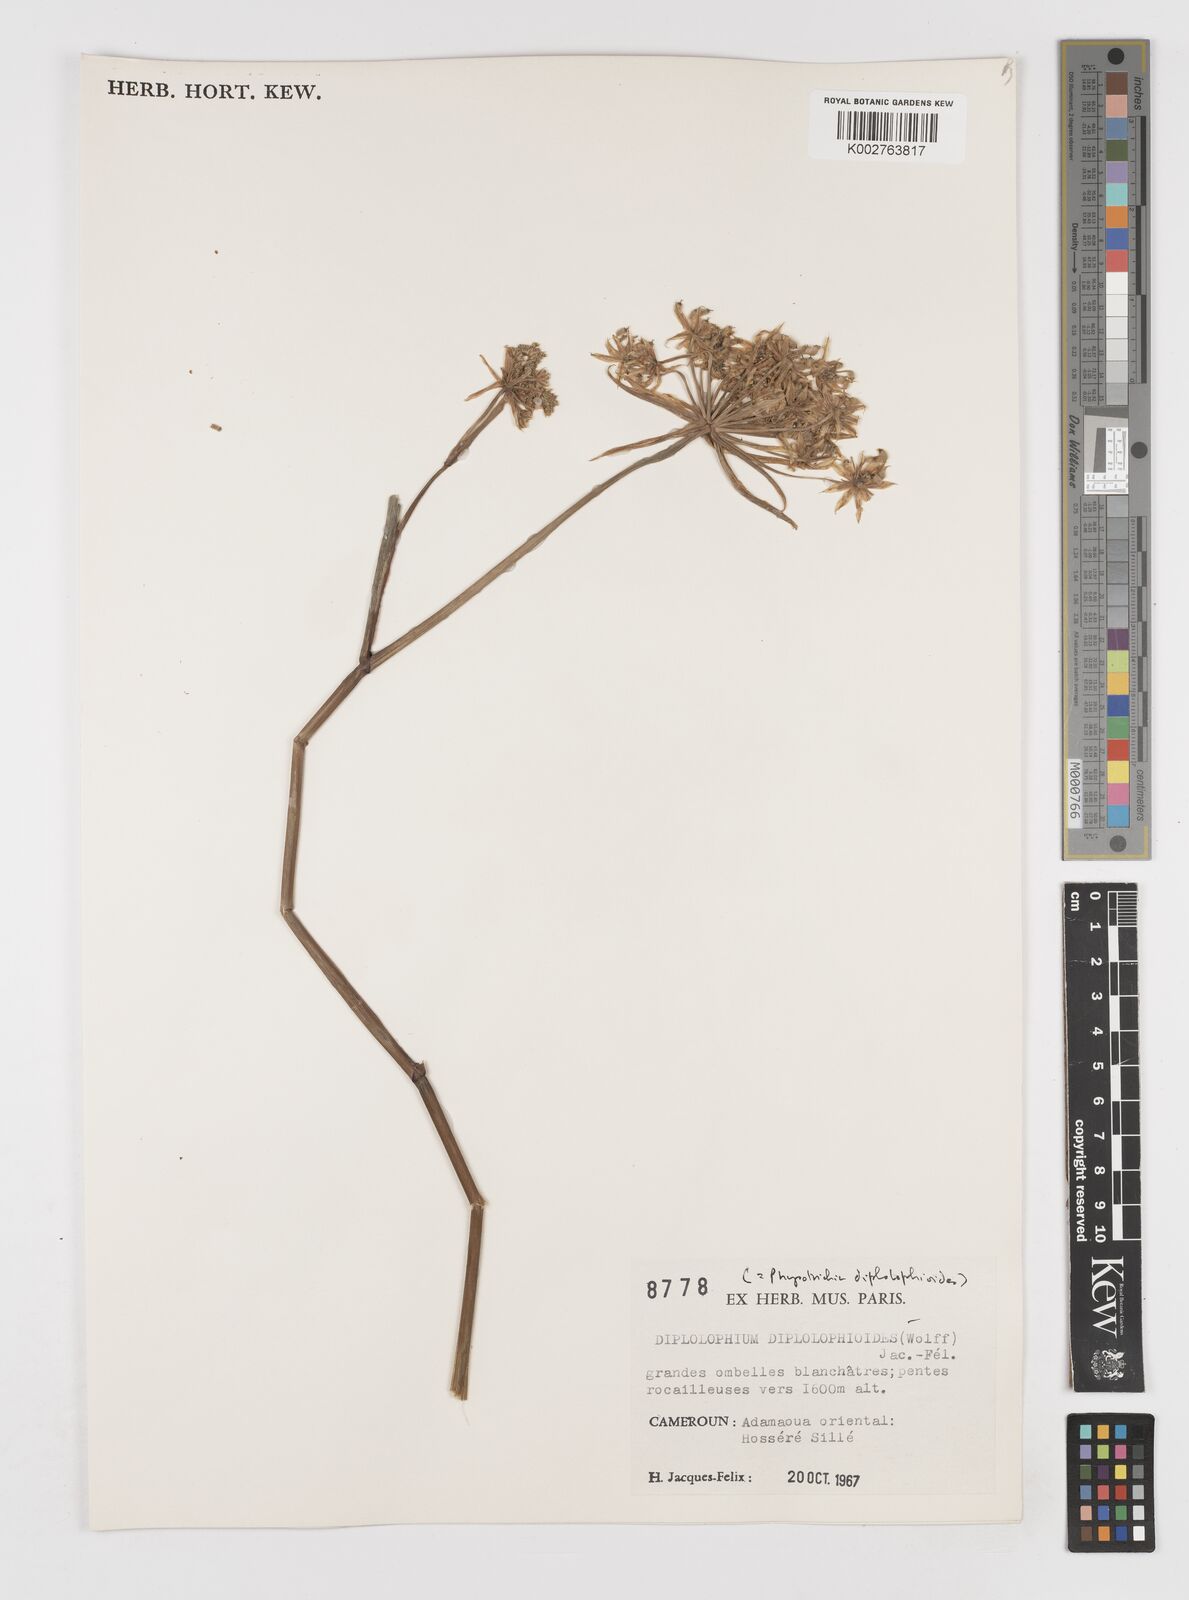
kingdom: Plantae
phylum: Tracheophyta
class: Magnoliopsida
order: Apiales
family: Apiaceae
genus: Diplolophium
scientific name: Diplolophium diplolophioides
